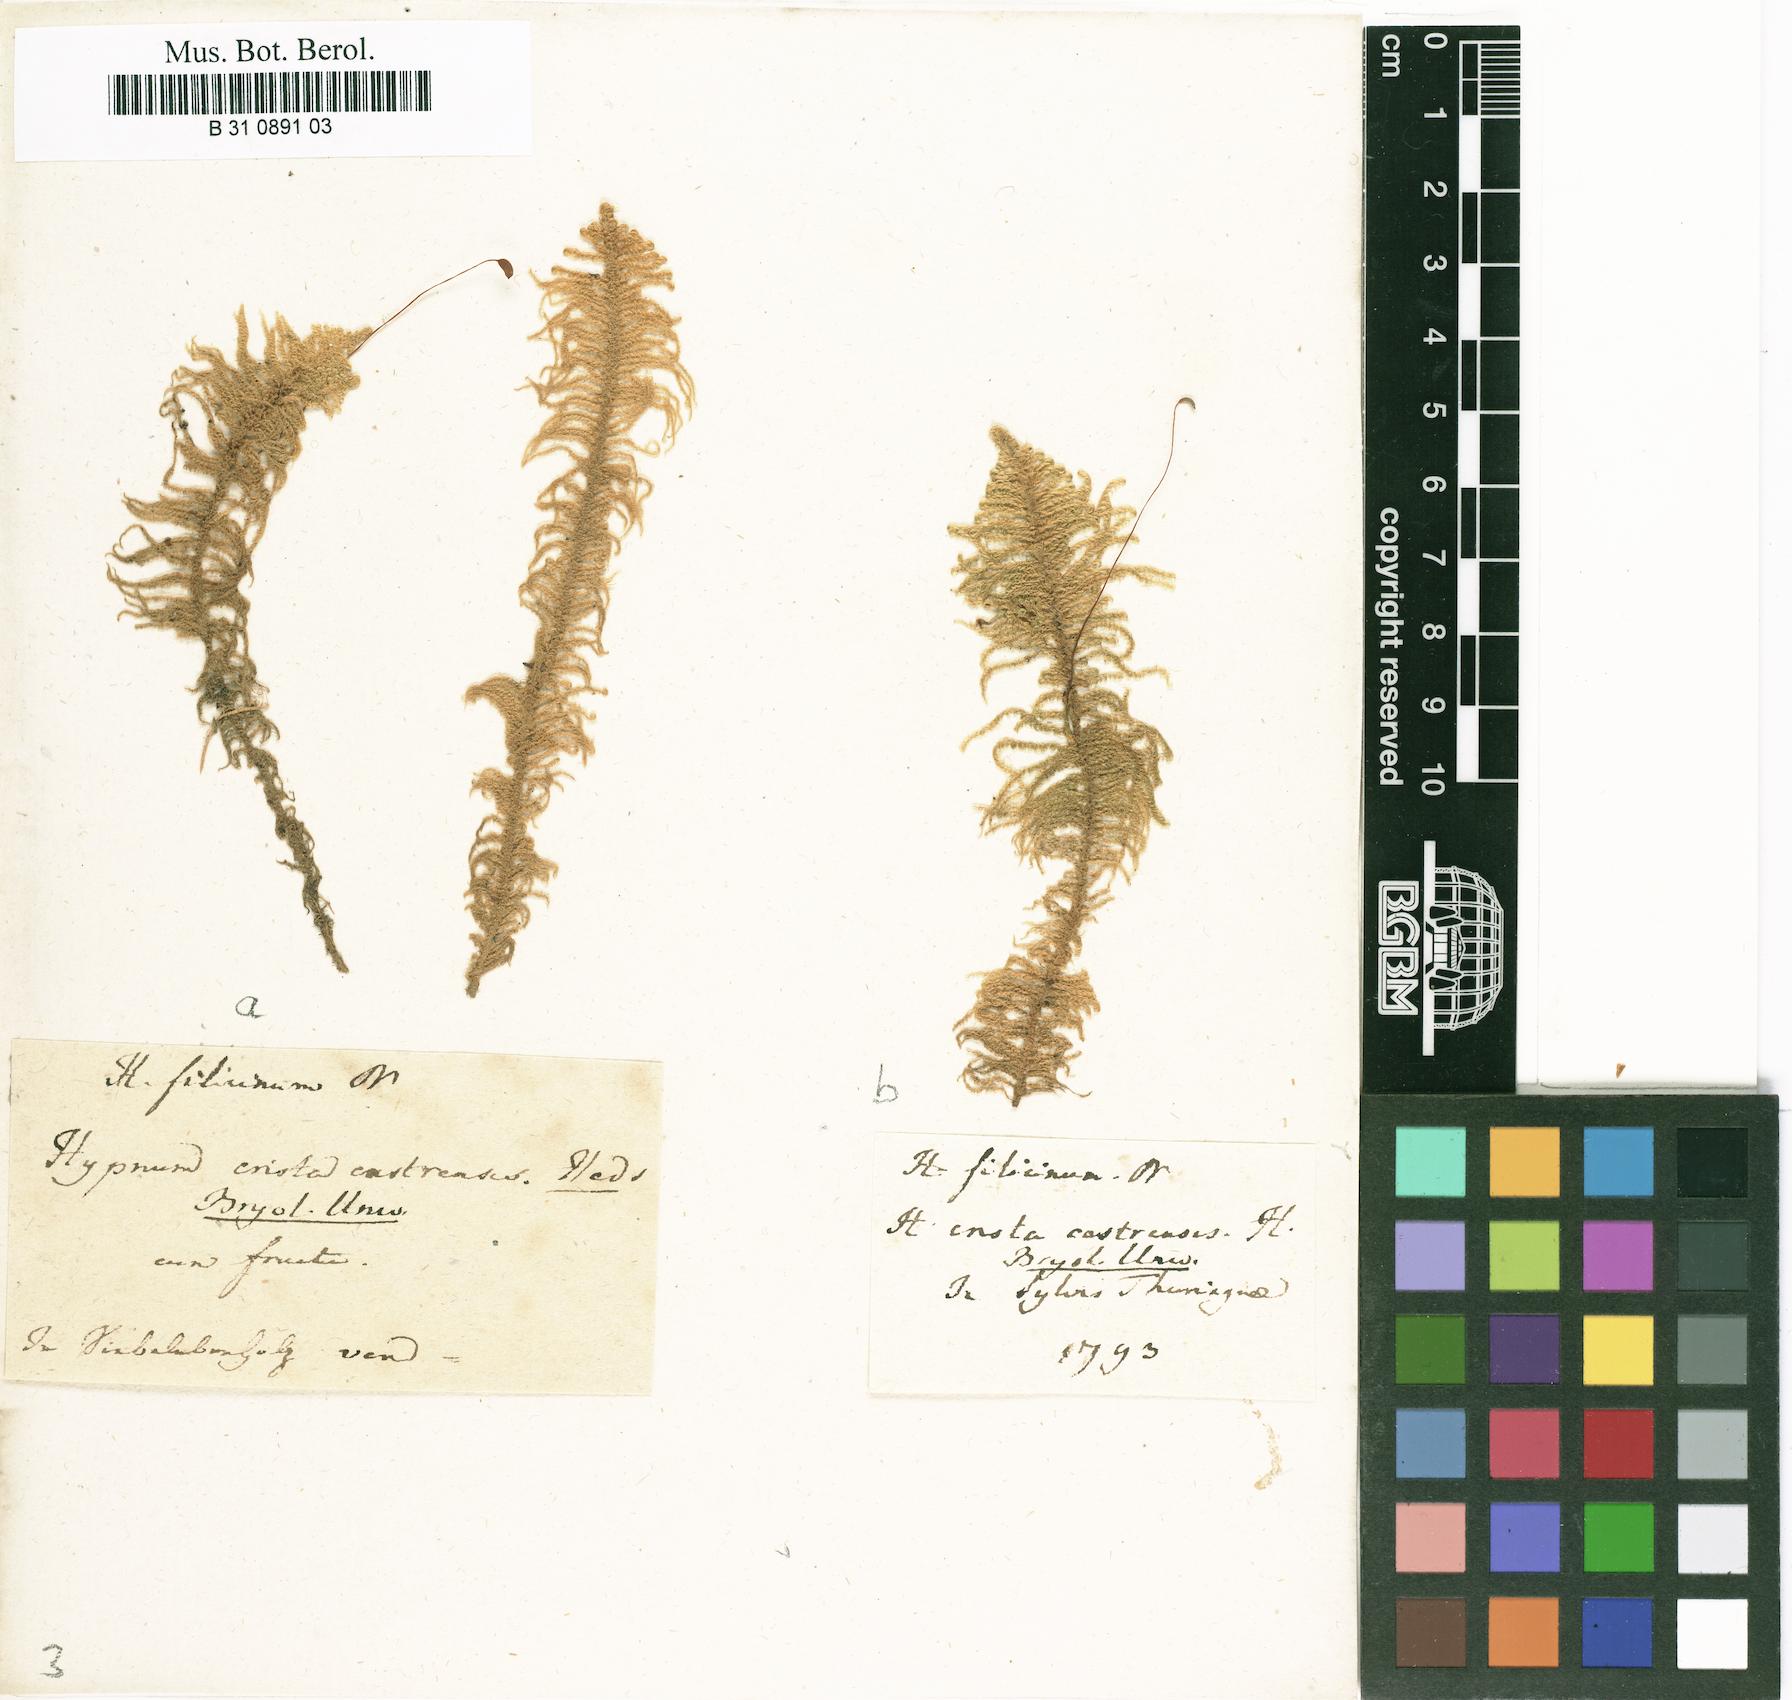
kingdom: Plantae
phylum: Bryophyta
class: Bryopsida
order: Hypnales
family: Pylaisiaceae
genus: Ptilium
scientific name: Ptilium crista-castrensis
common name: Knight's plume moss
